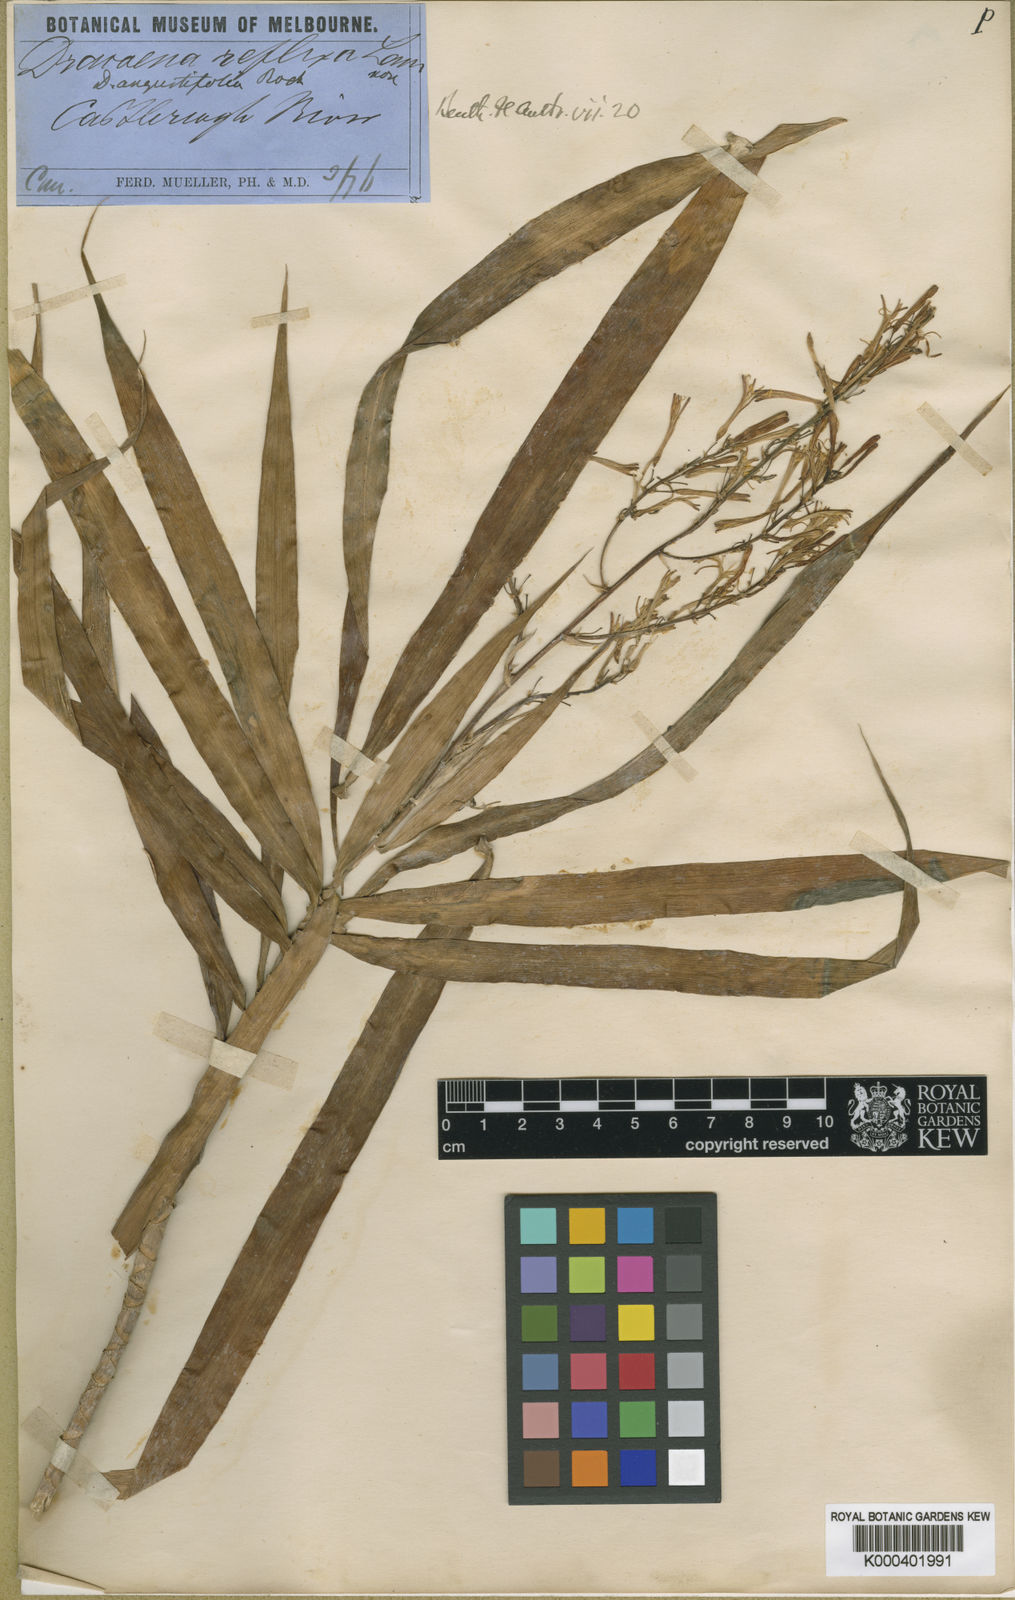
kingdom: Plantae
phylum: Tracheophyta
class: Liliopsida
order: Asparagales
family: Asparagaceae
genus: Dracaena
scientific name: Dracaena angustifolia
